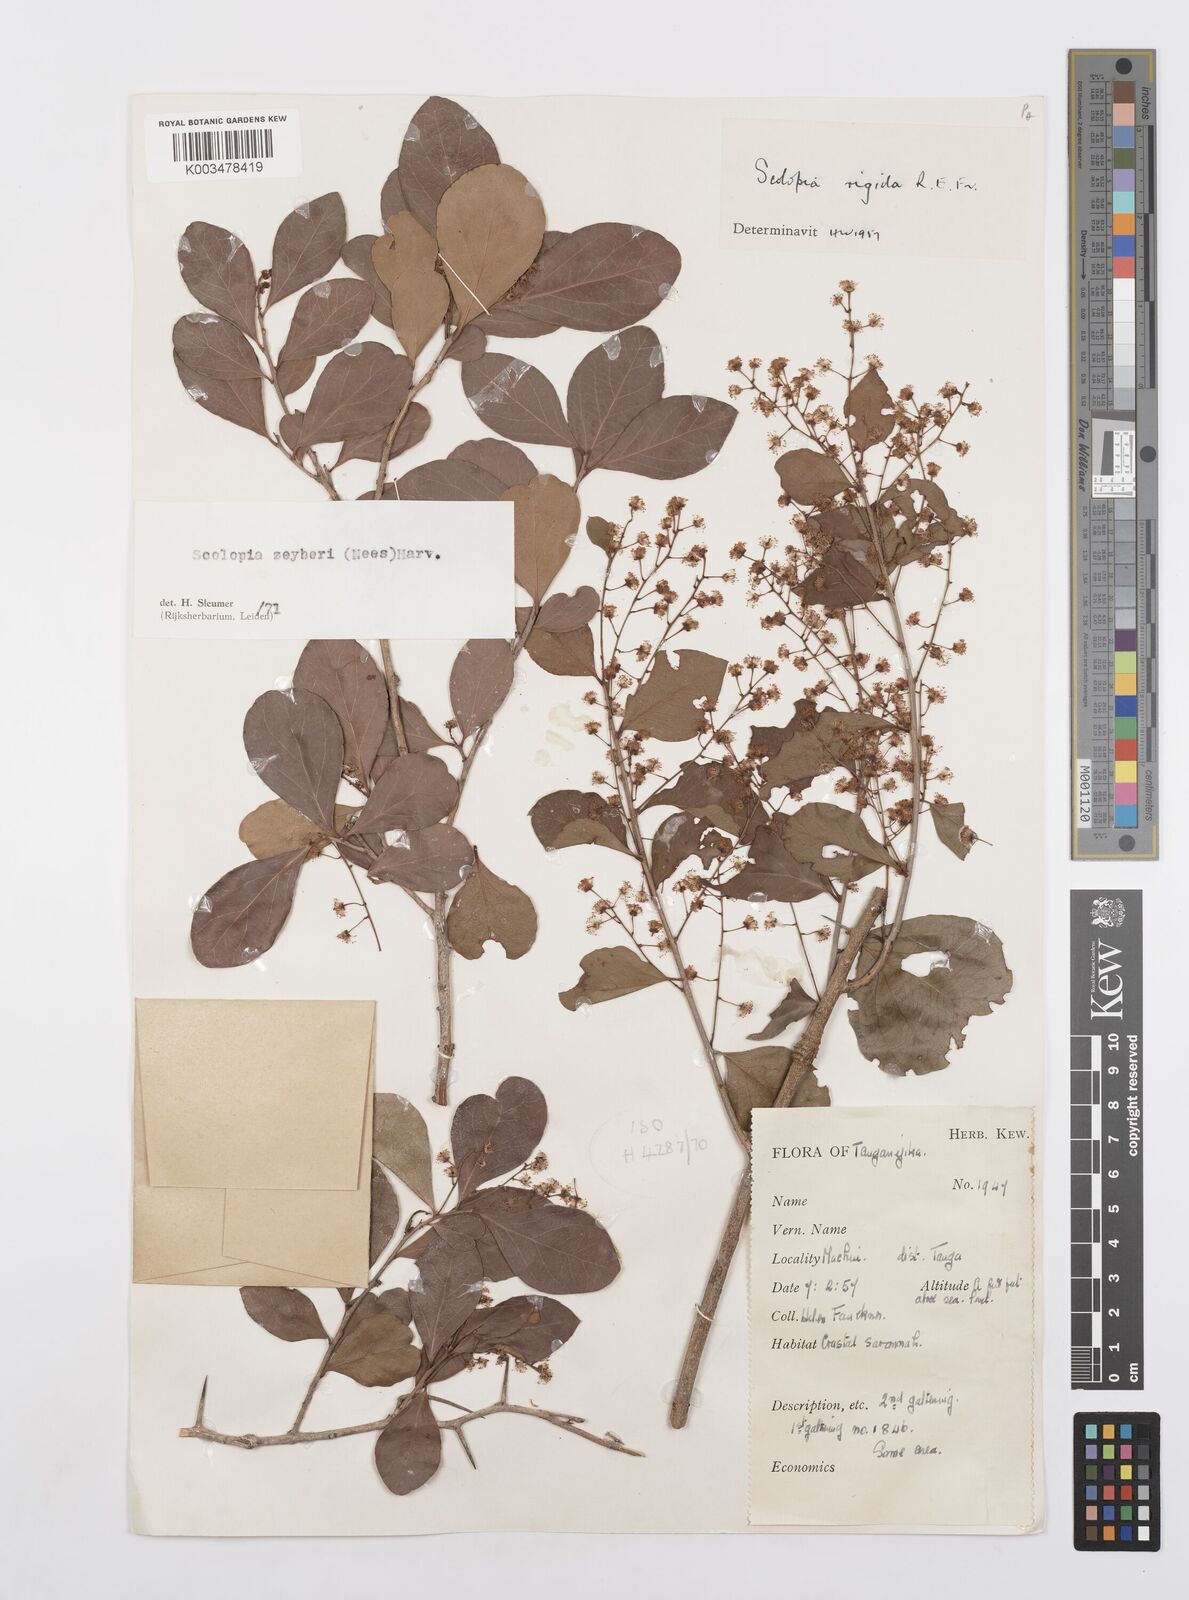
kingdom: Plantae
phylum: Tracheophyta
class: Magnoliopsida
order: Malpighiales
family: Salicaceae
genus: Scolopia
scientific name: Scolopia zeyheri
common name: Thorn pear
